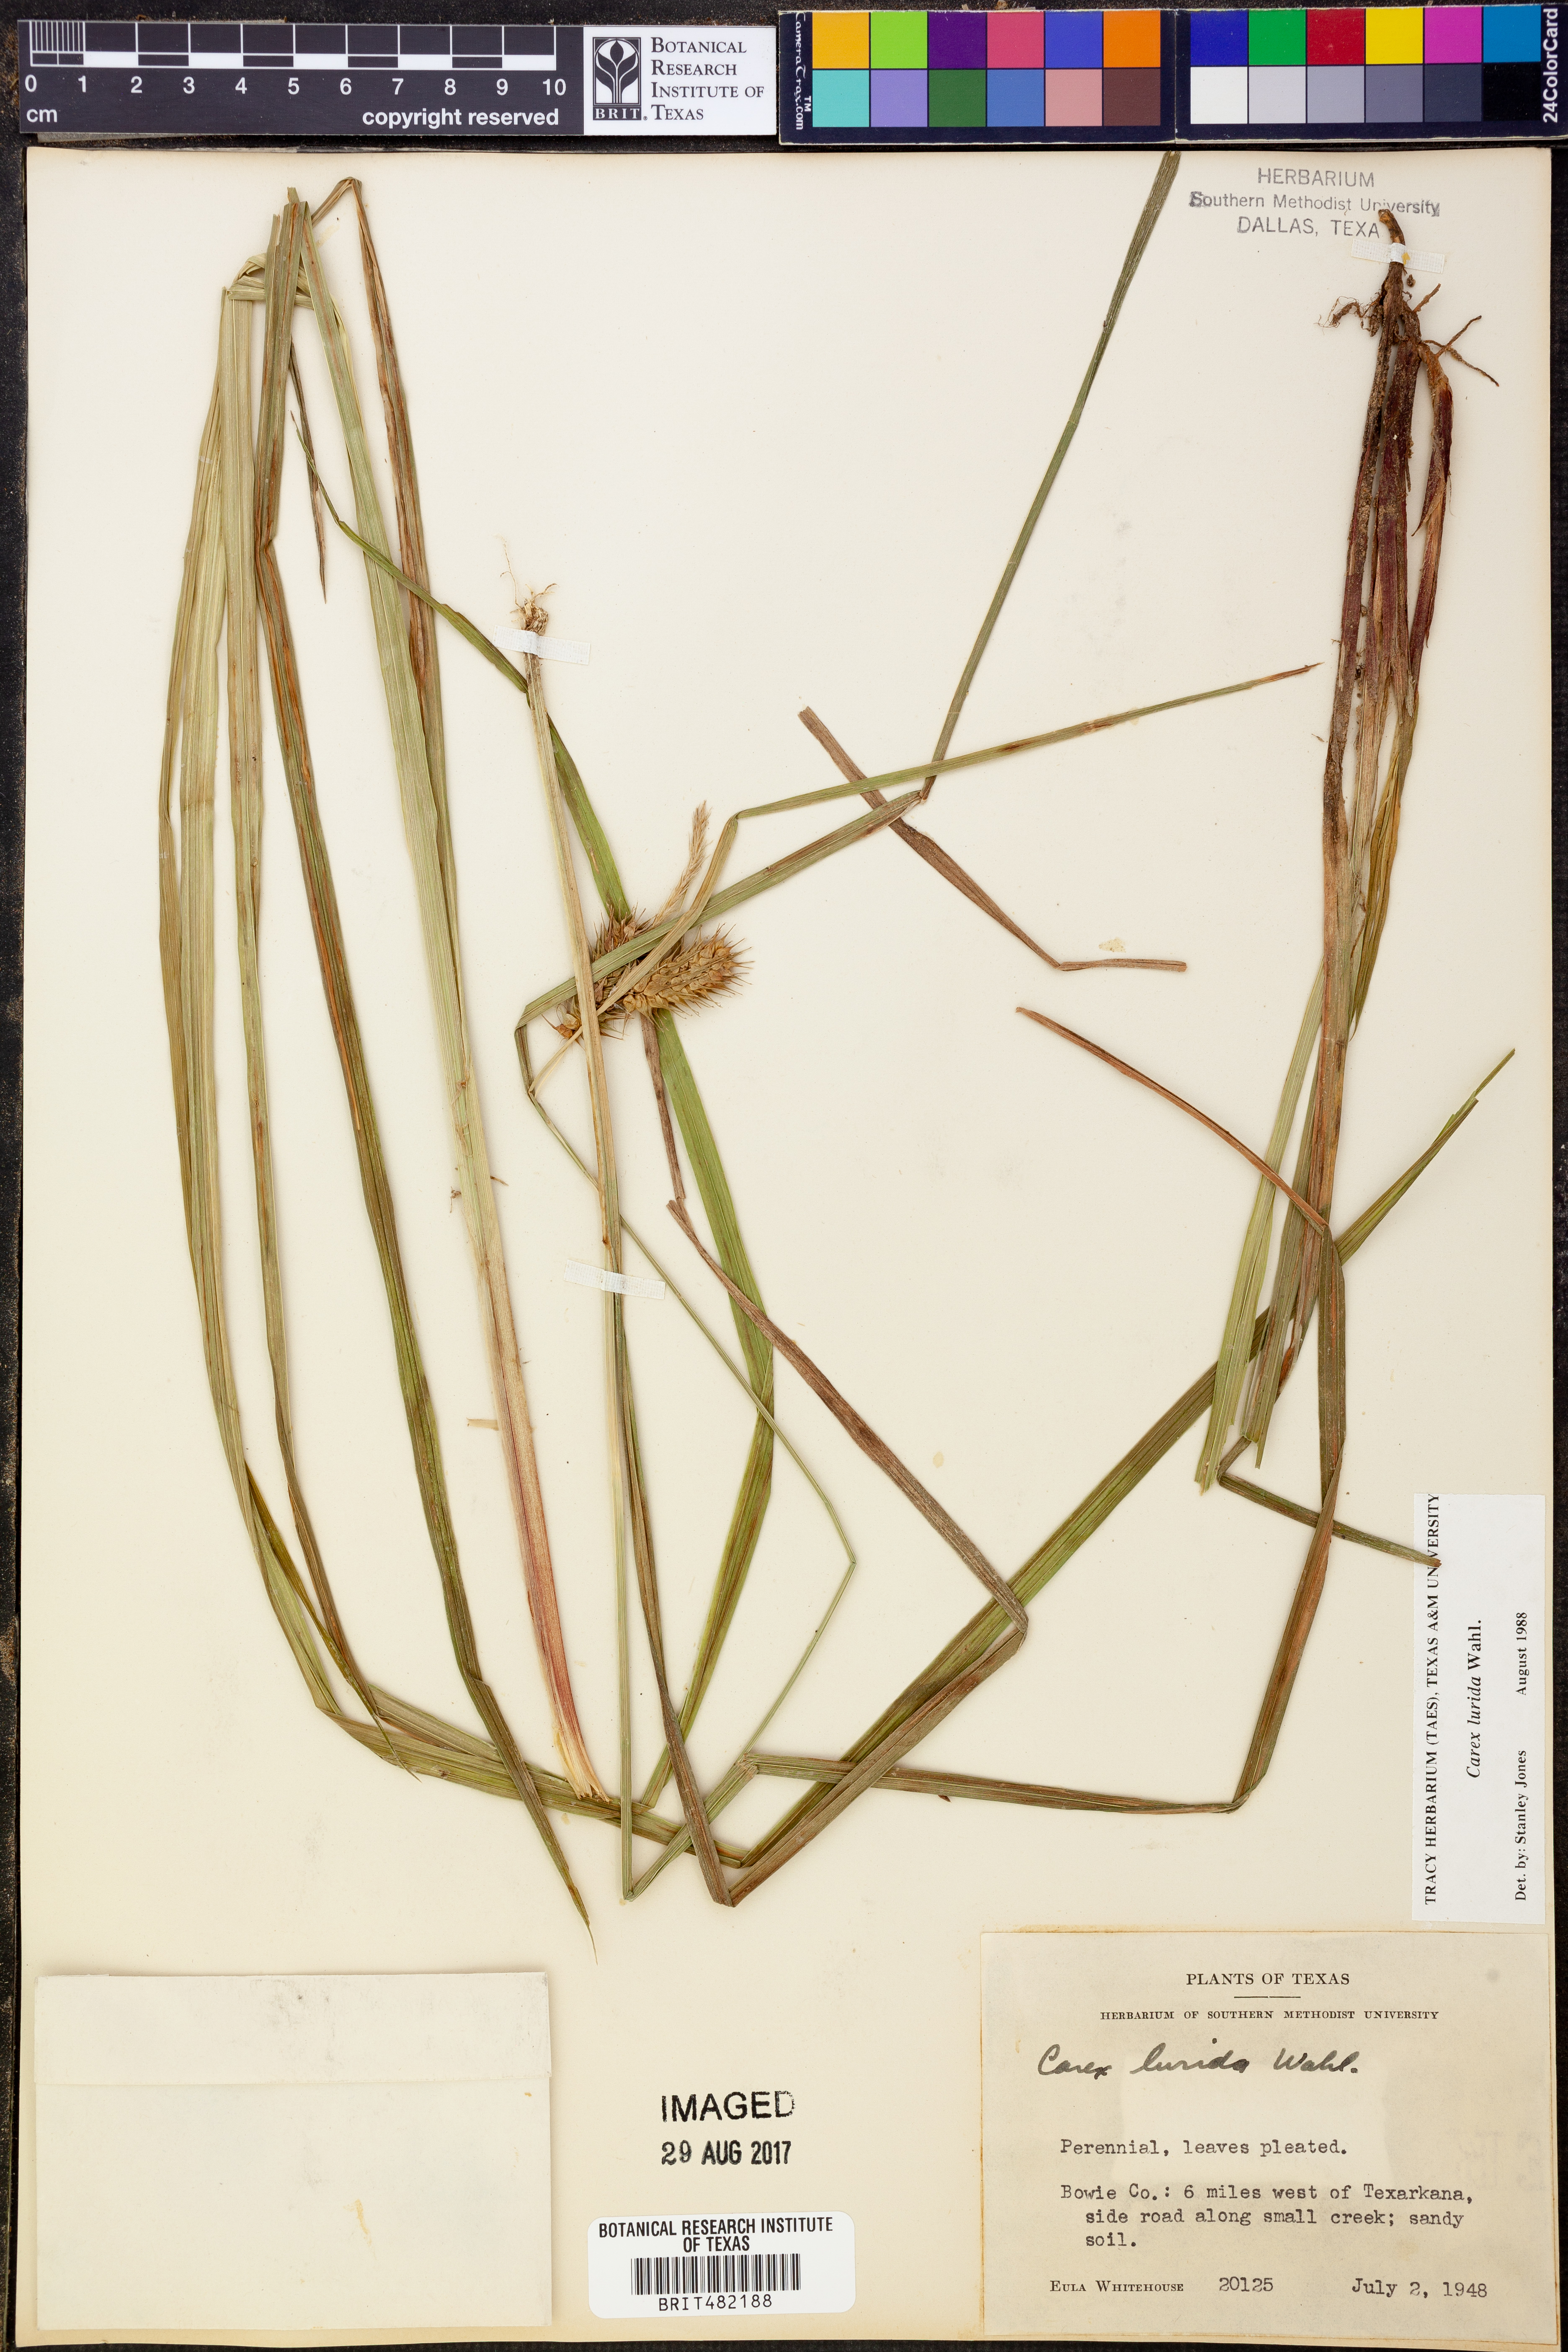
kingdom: Plantae
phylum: Tracheophyta
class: Liliopsida
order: Poales
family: Cyperaceae
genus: Carex
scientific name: Carex lurida
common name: Sallow sedge
